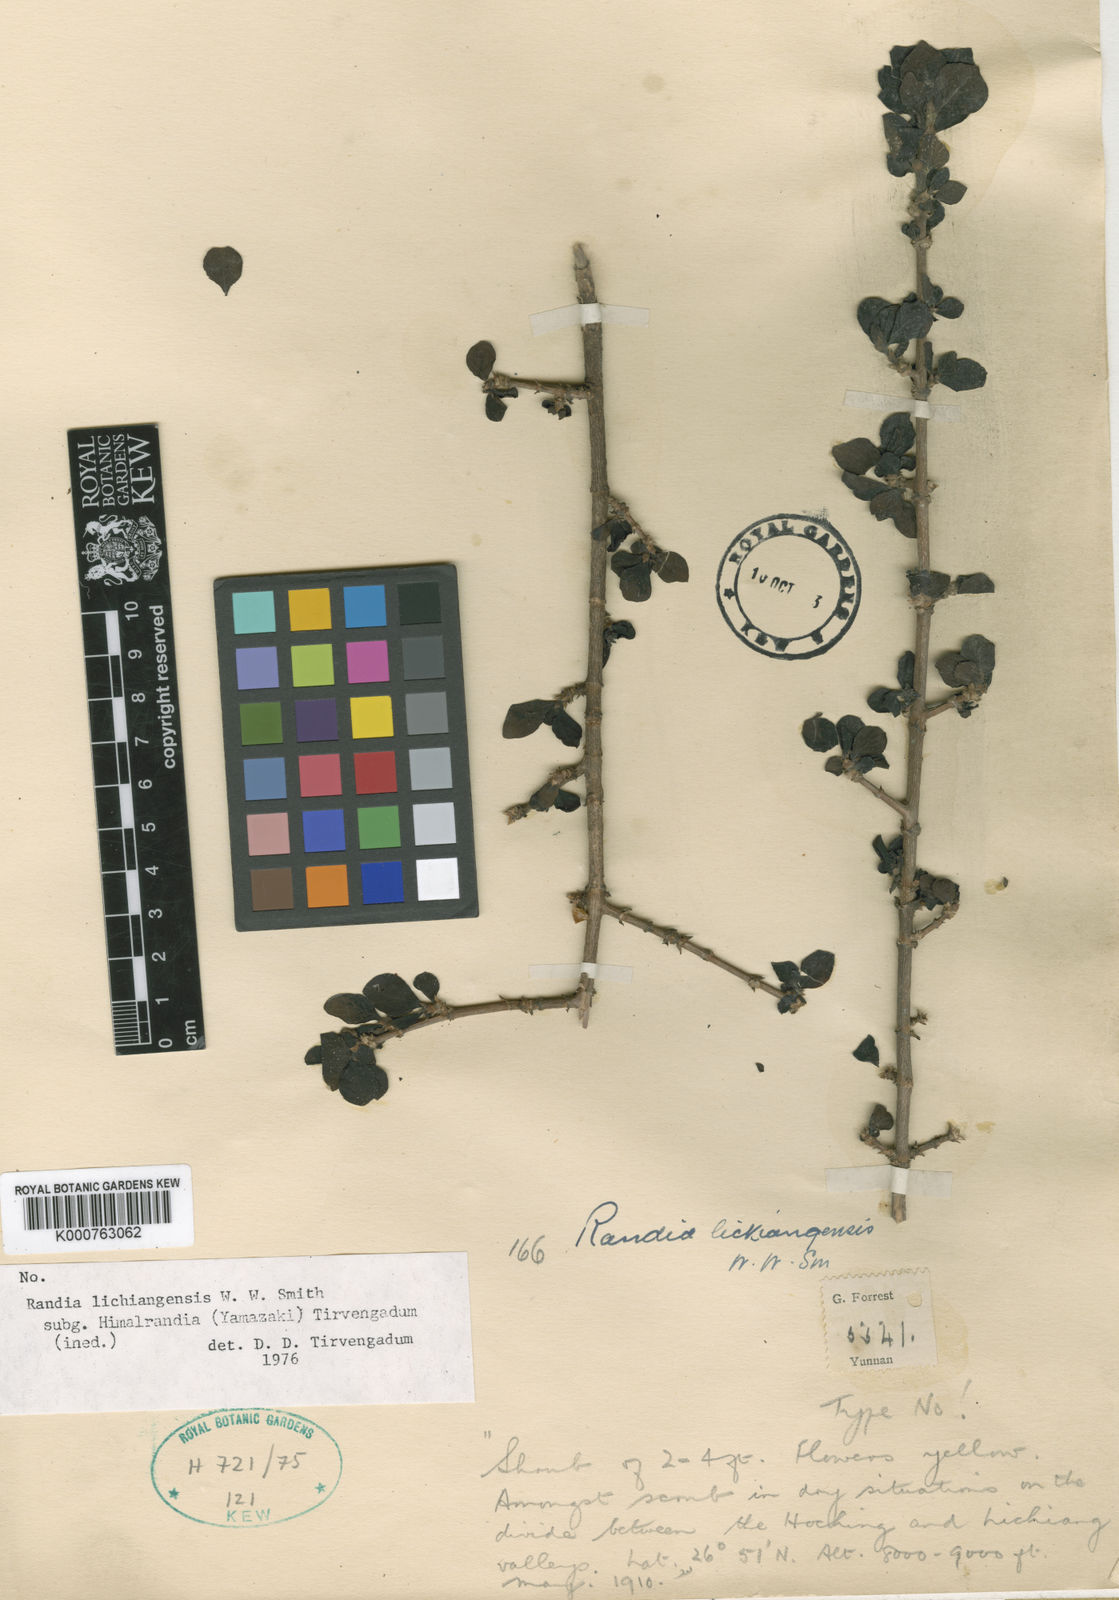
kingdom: Plantae
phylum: Tracheophyta
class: Magnoliopsida
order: Gentianales
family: Rubiaceae
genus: Himalrandia
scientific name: Himalrandia lichiangensis
